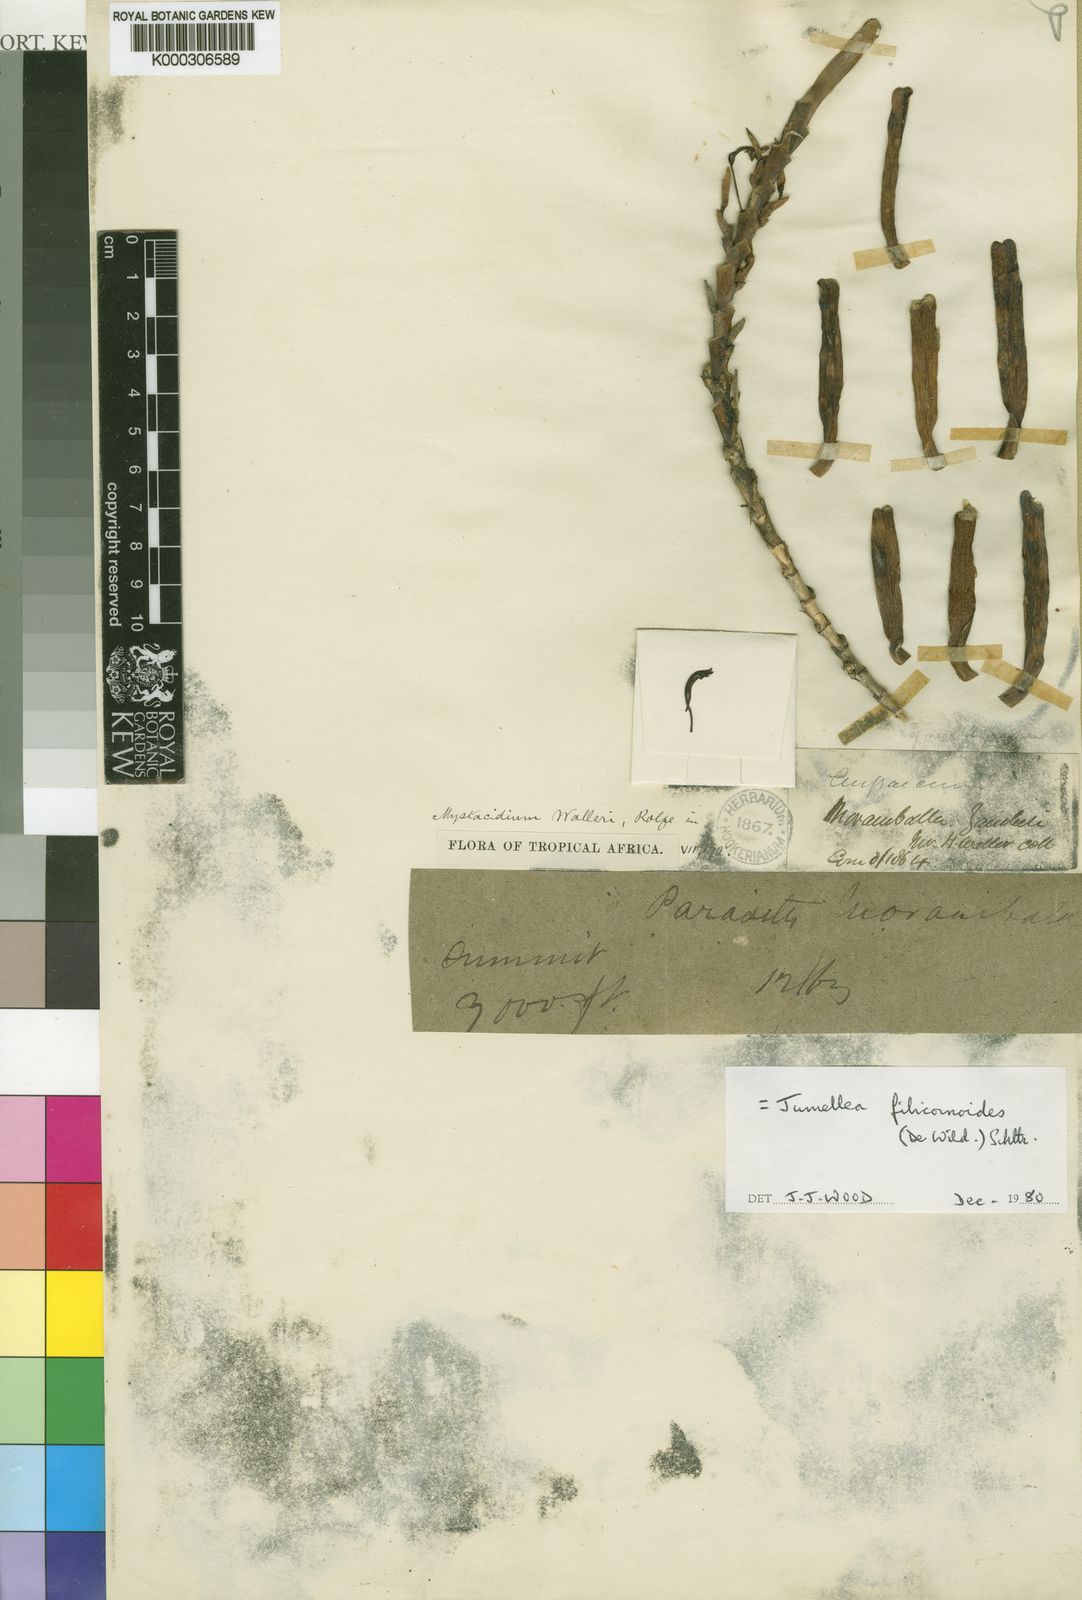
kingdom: Plantae
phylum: Tracheophyta
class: Liliopsida
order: Asparagales
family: Orchidaceae
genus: Jumellea
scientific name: Jumellea
